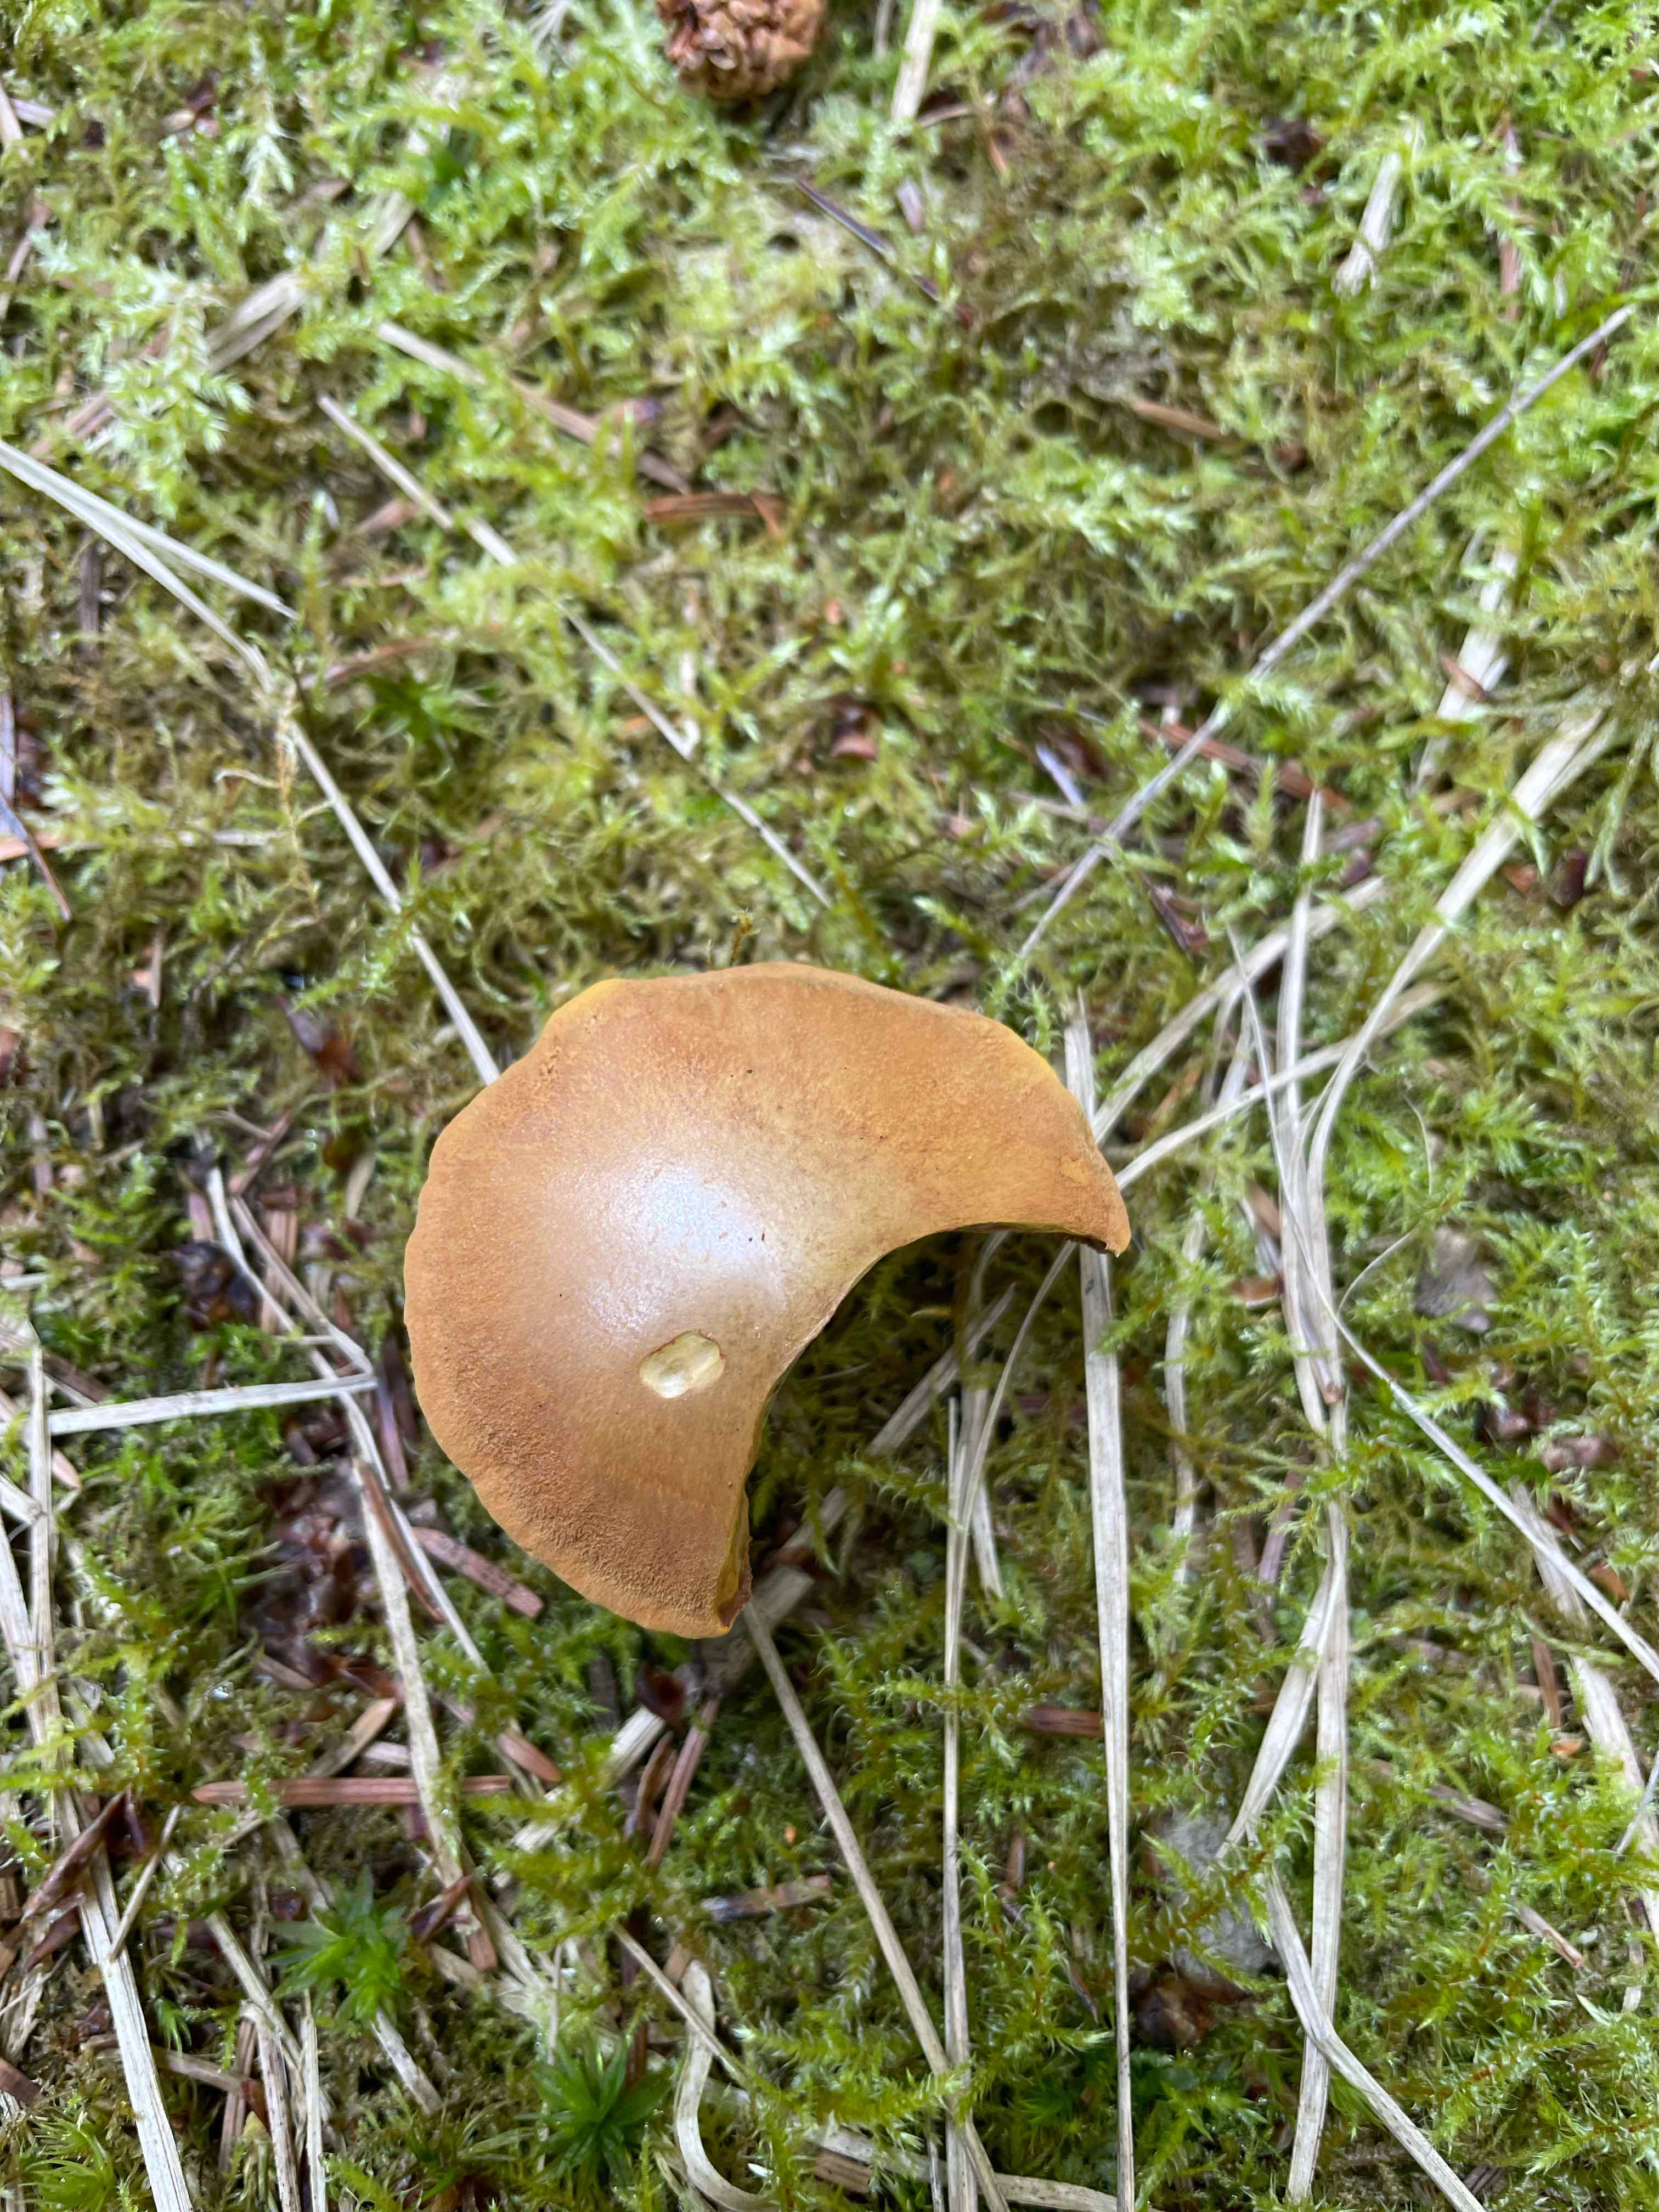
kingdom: Fungi
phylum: Basidiomycota
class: Agaricomycetes
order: Agaricales
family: Tricholomataceae
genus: Tricholomopsis
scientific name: Tricholomopsis rutilans
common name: purpur-væbnerhat
